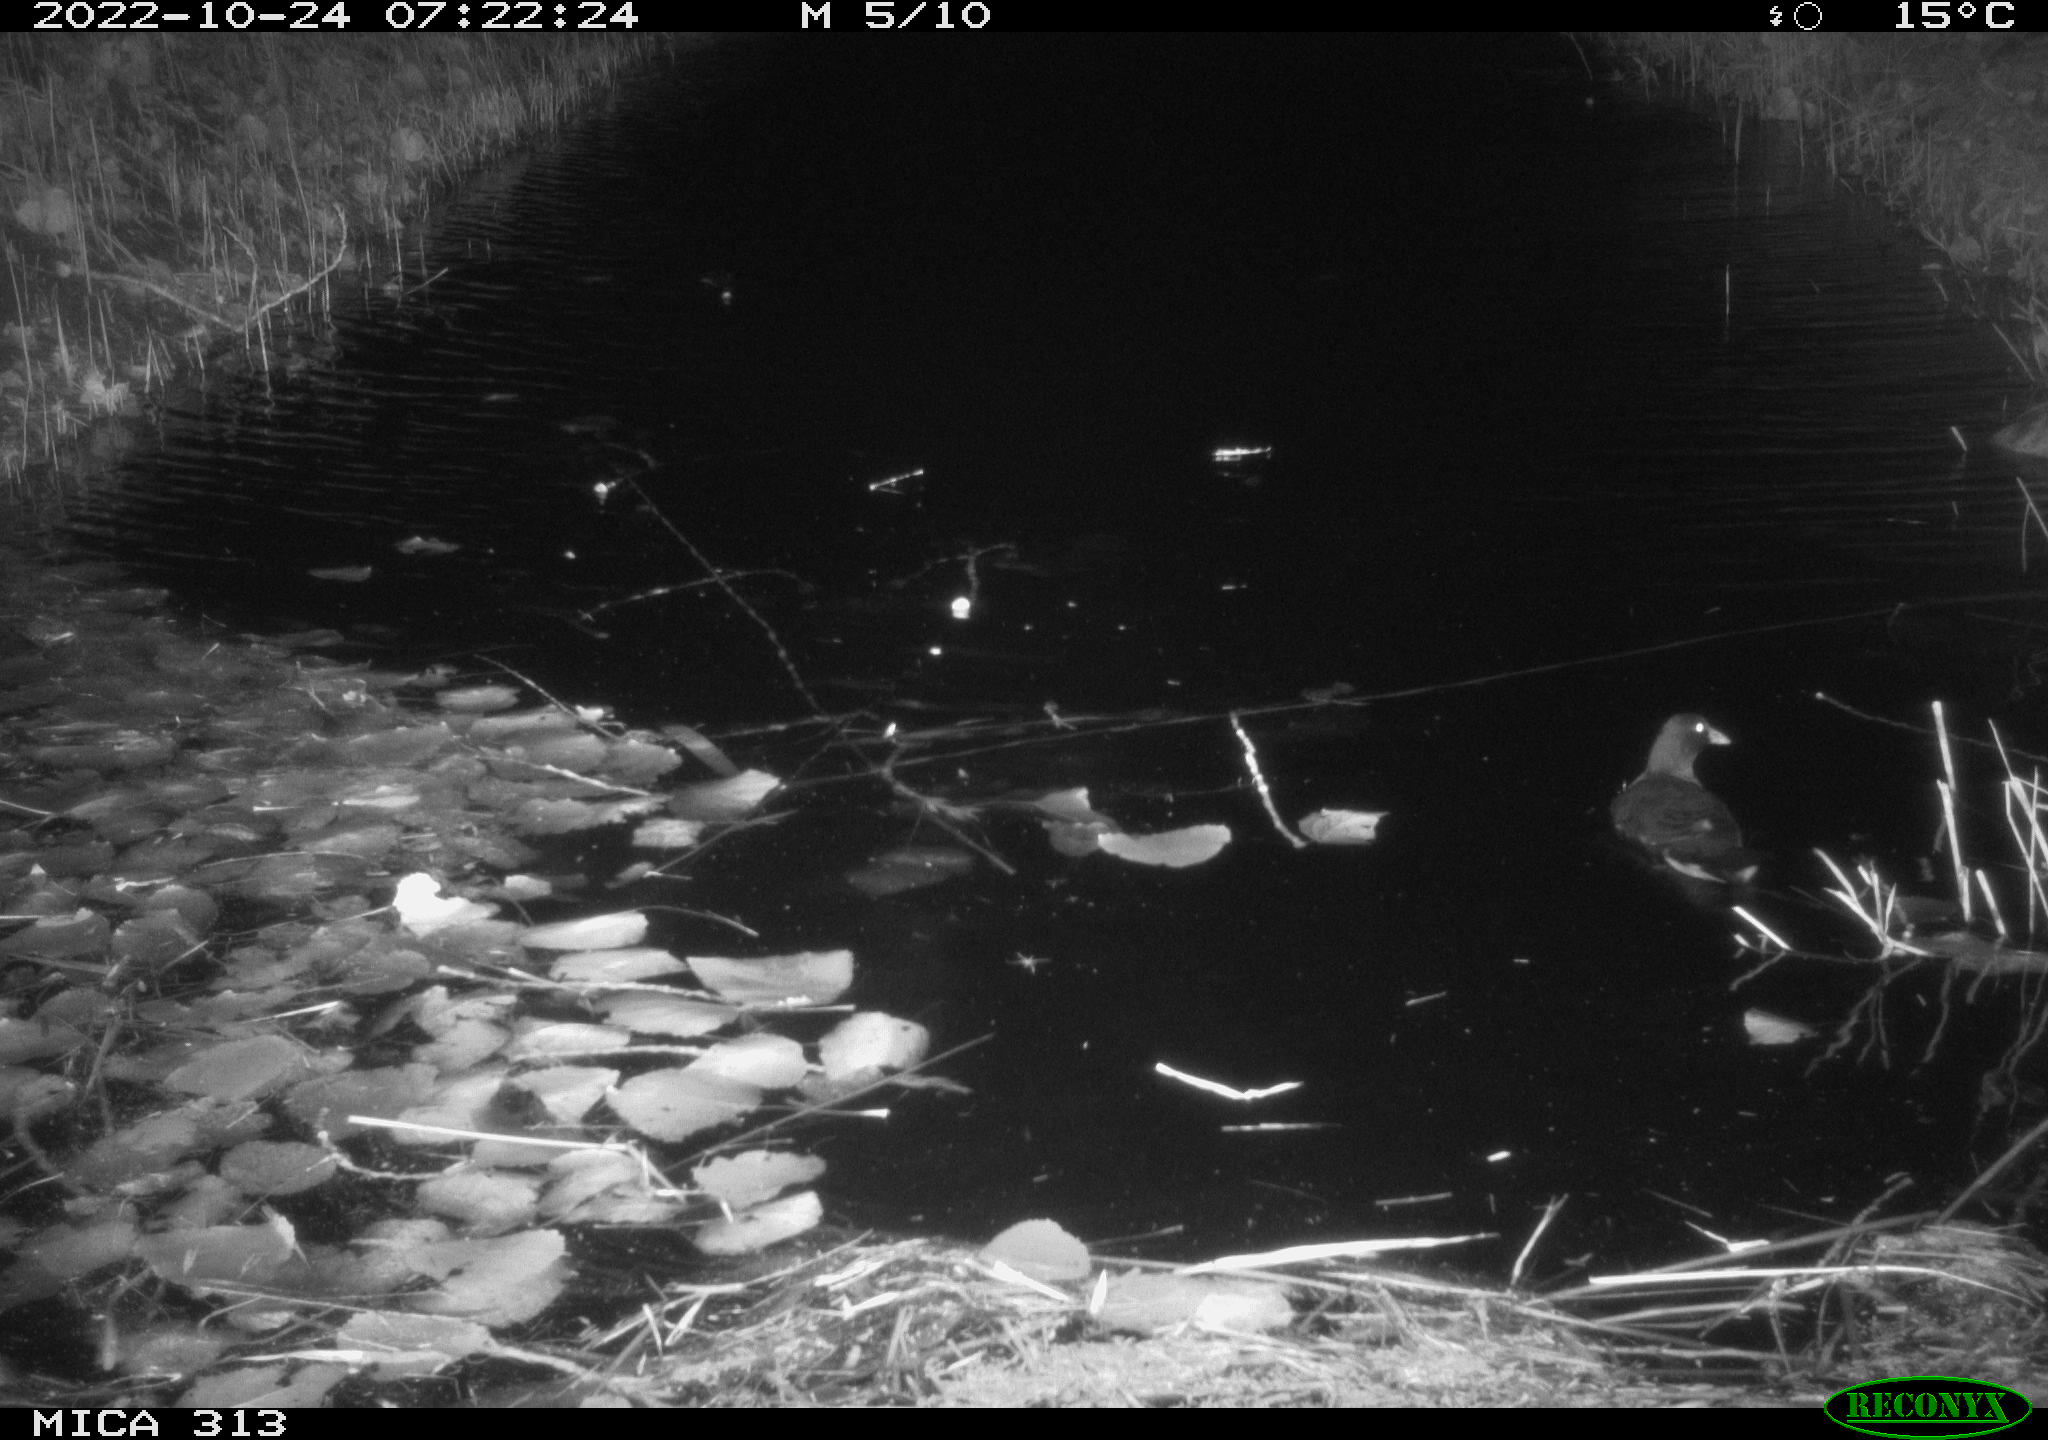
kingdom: Animalia
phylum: Chordata
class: Aves
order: Gruiformes
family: Rallidae
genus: Gallinula
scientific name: Gallinula chloropus
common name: Common moorhen
